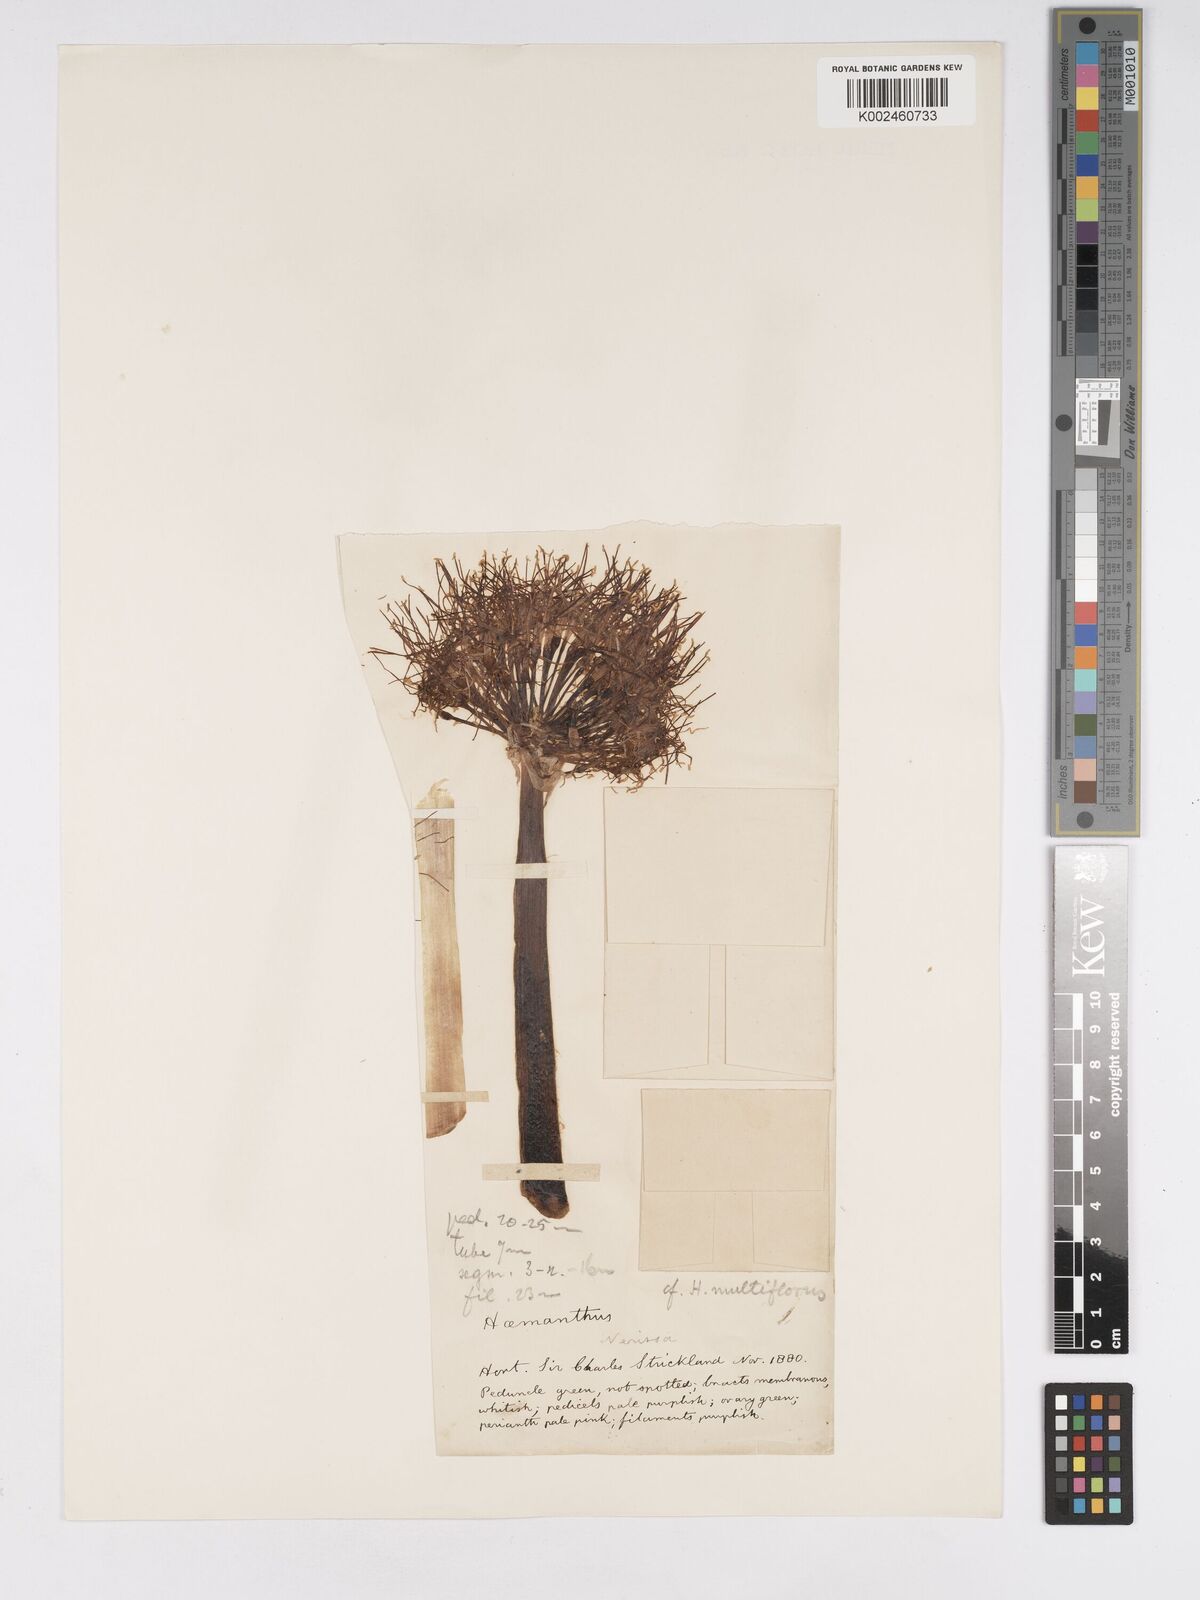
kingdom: Plantae
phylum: Tracheophyta
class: Liliopsida
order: Asparagales
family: Amaryllidaceae
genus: Scadoxus
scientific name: Scadoxus multiflorus
